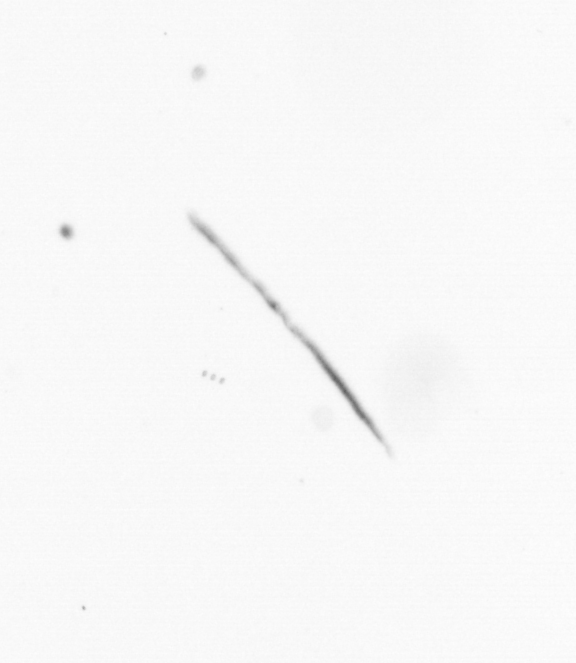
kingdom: Chromista
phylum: Ochrophyta
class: Bacillariophyceae
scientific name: Bacillariophyceae
